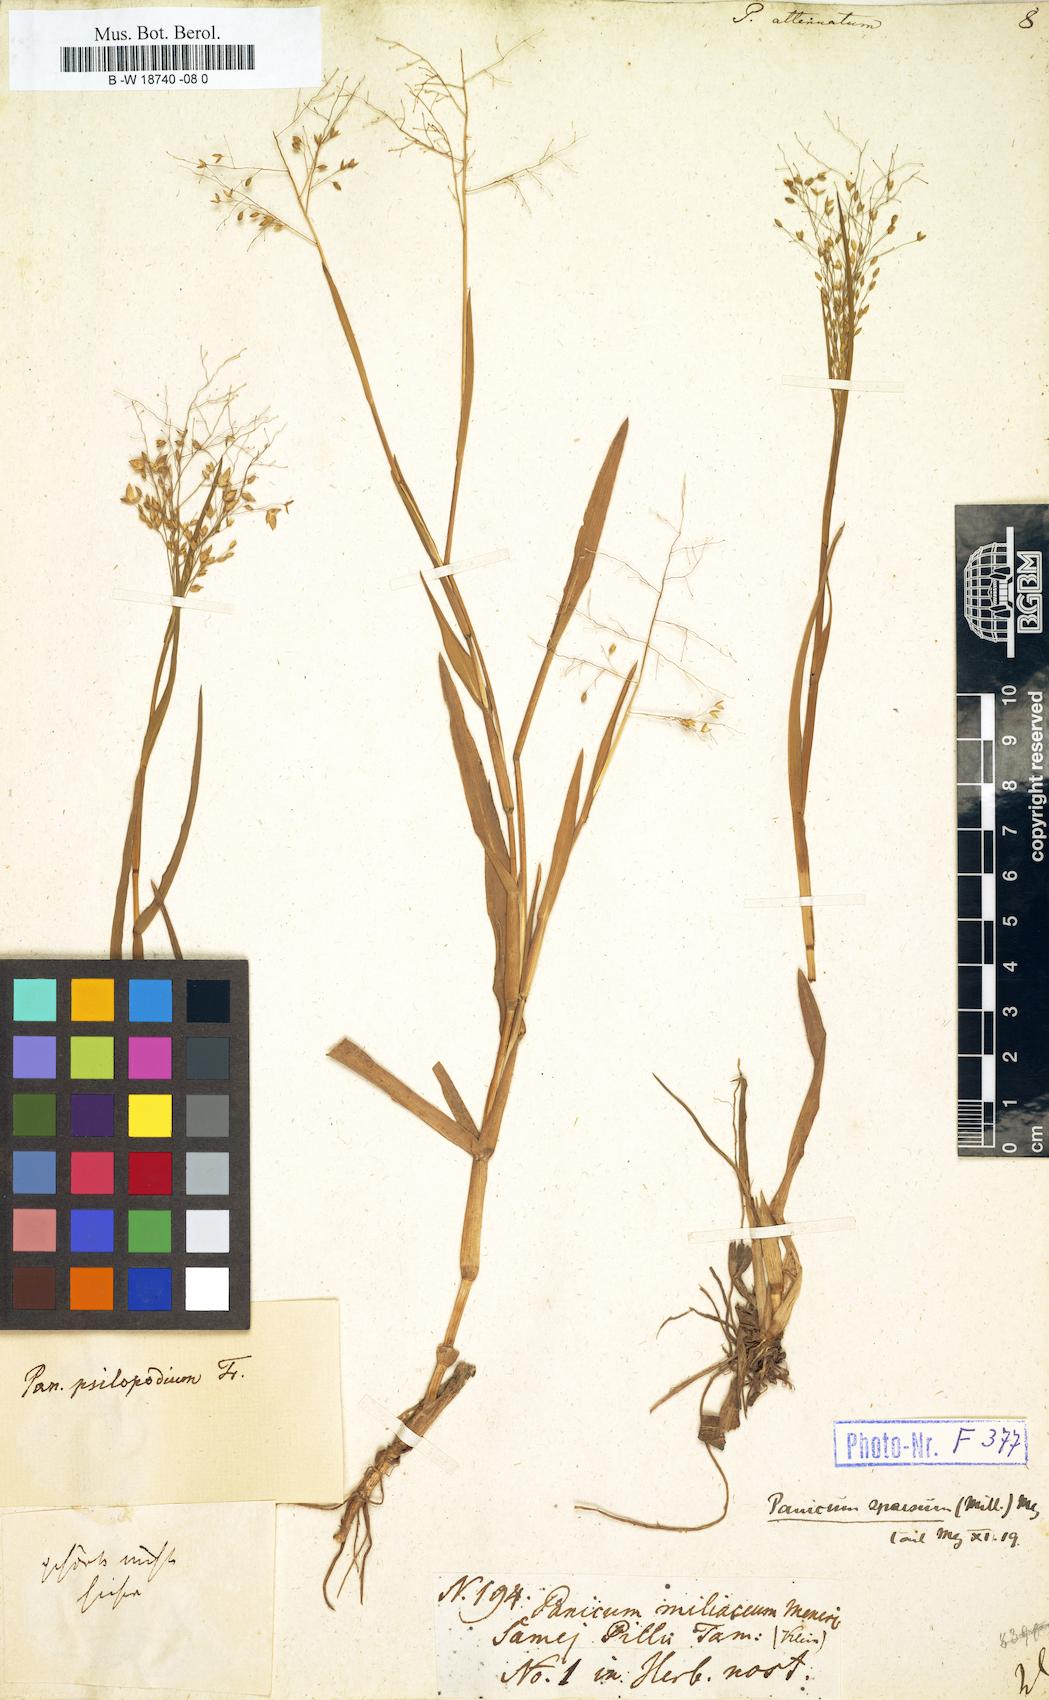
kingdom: Plantae
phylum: Tracheophyta
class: Liliopsida
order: Poales
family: Poaceae
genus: Panicum
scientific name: Panicum sumatrense
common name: Little millet
